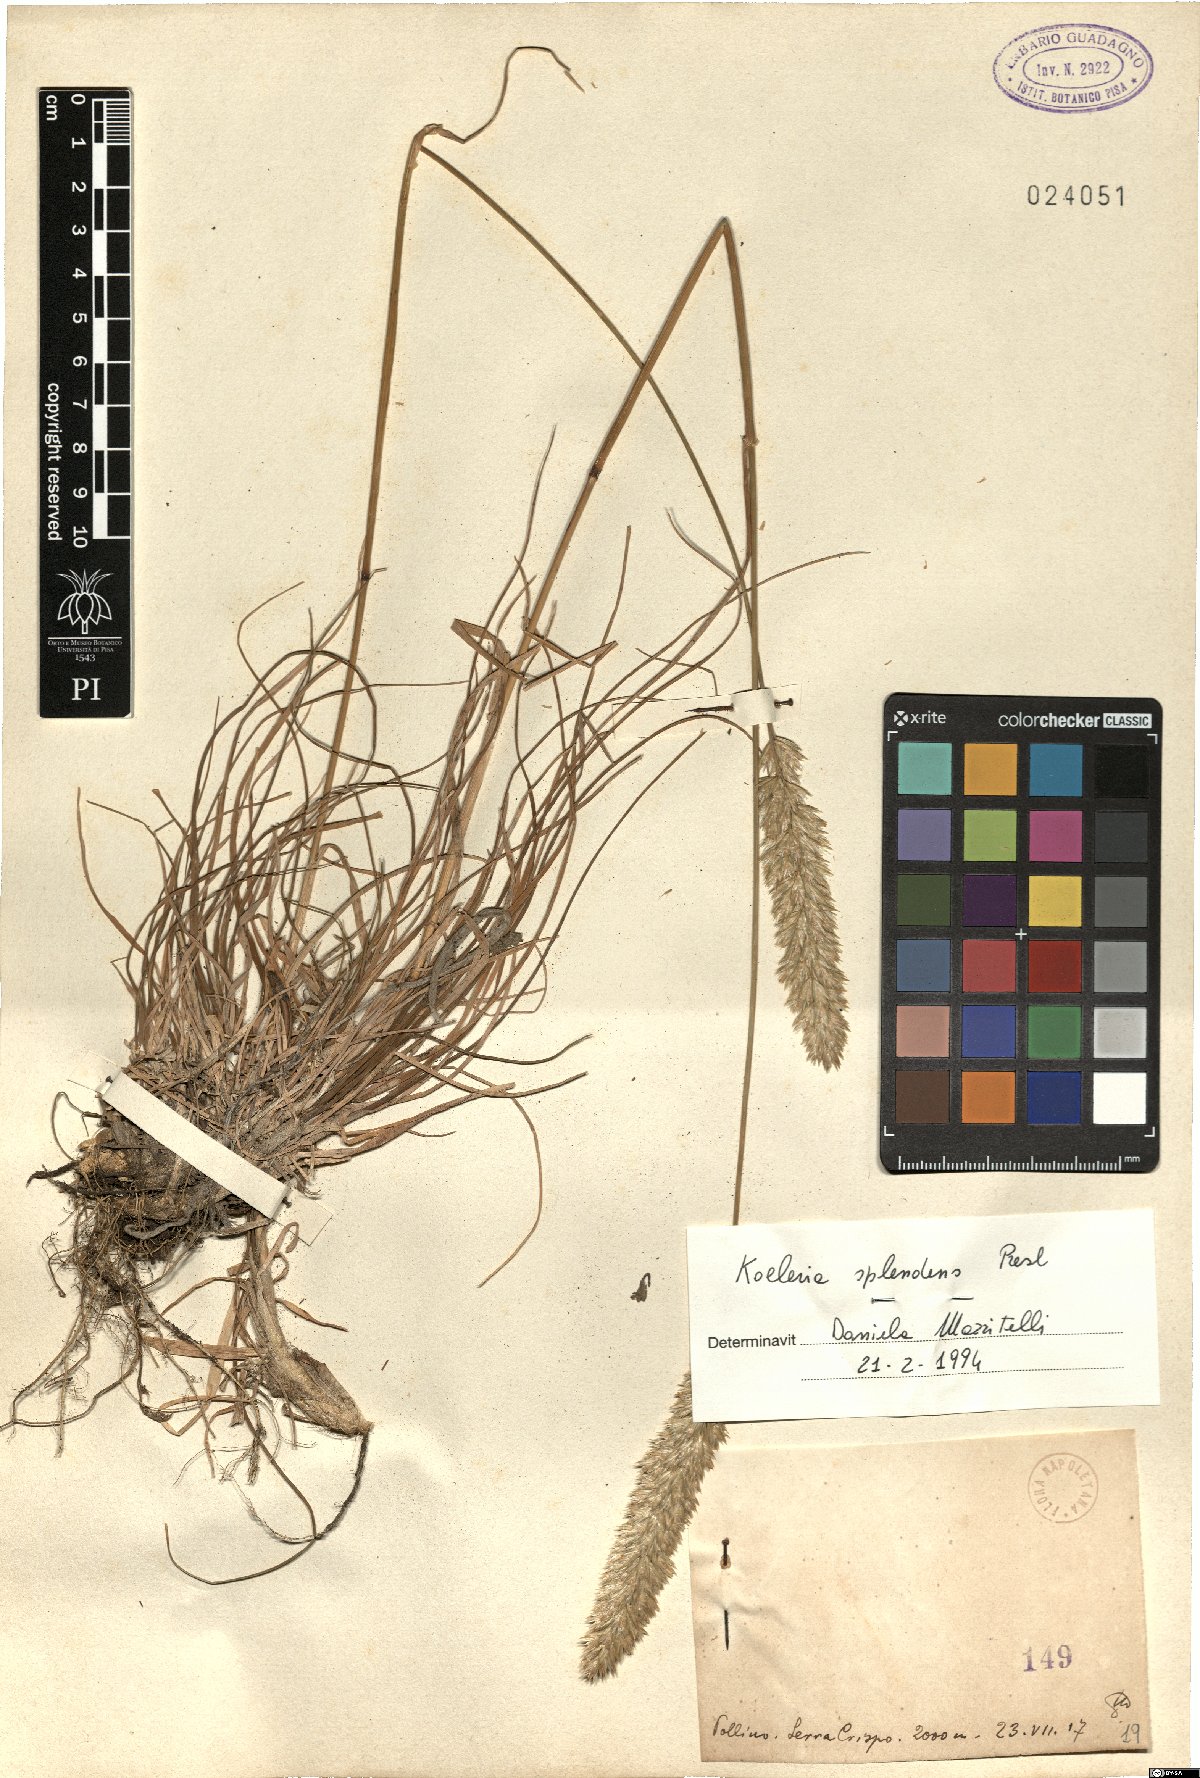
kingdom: Plantae
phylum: Tracheophyta
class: Liliopsida
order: Poales
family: Poaceae
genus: Koeleria
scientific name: Koeleria splendens
